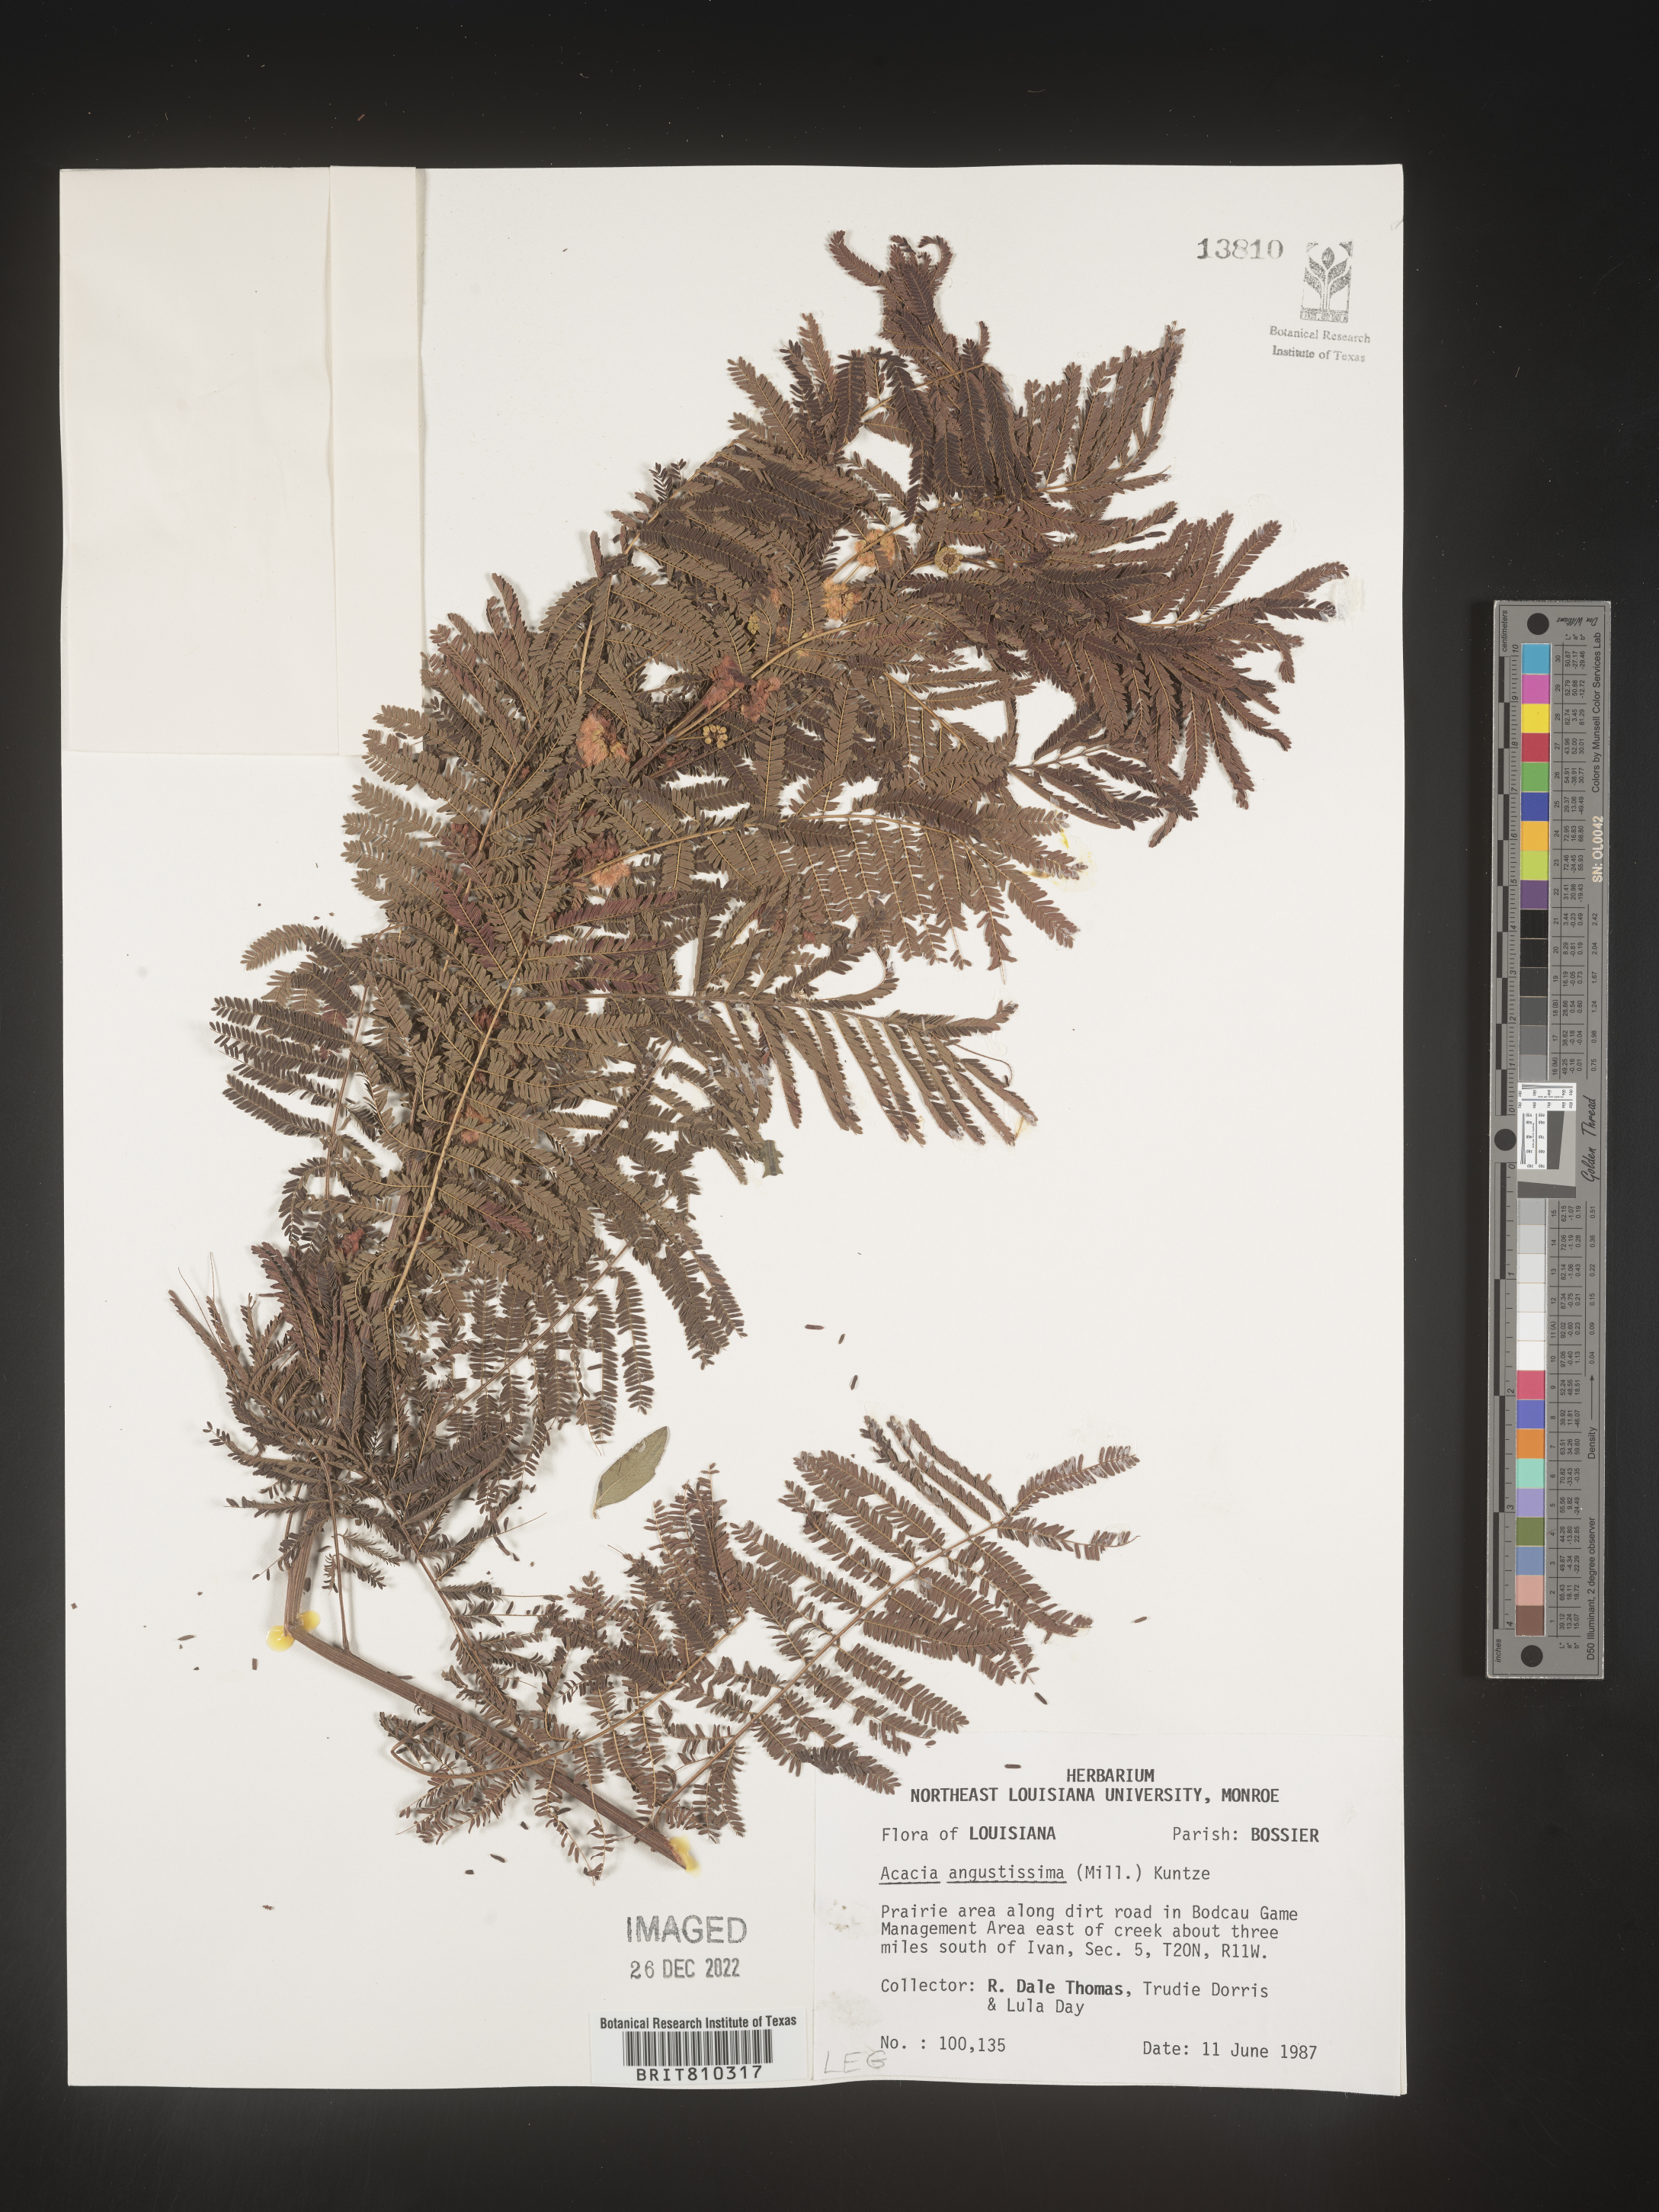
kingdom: Plantae
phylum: Tracheophyta
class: Magnoliopsida
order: Fabales
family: Fabaceae
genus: Acaciella
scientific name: Acaciella angustissima
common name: Prairie acacia
